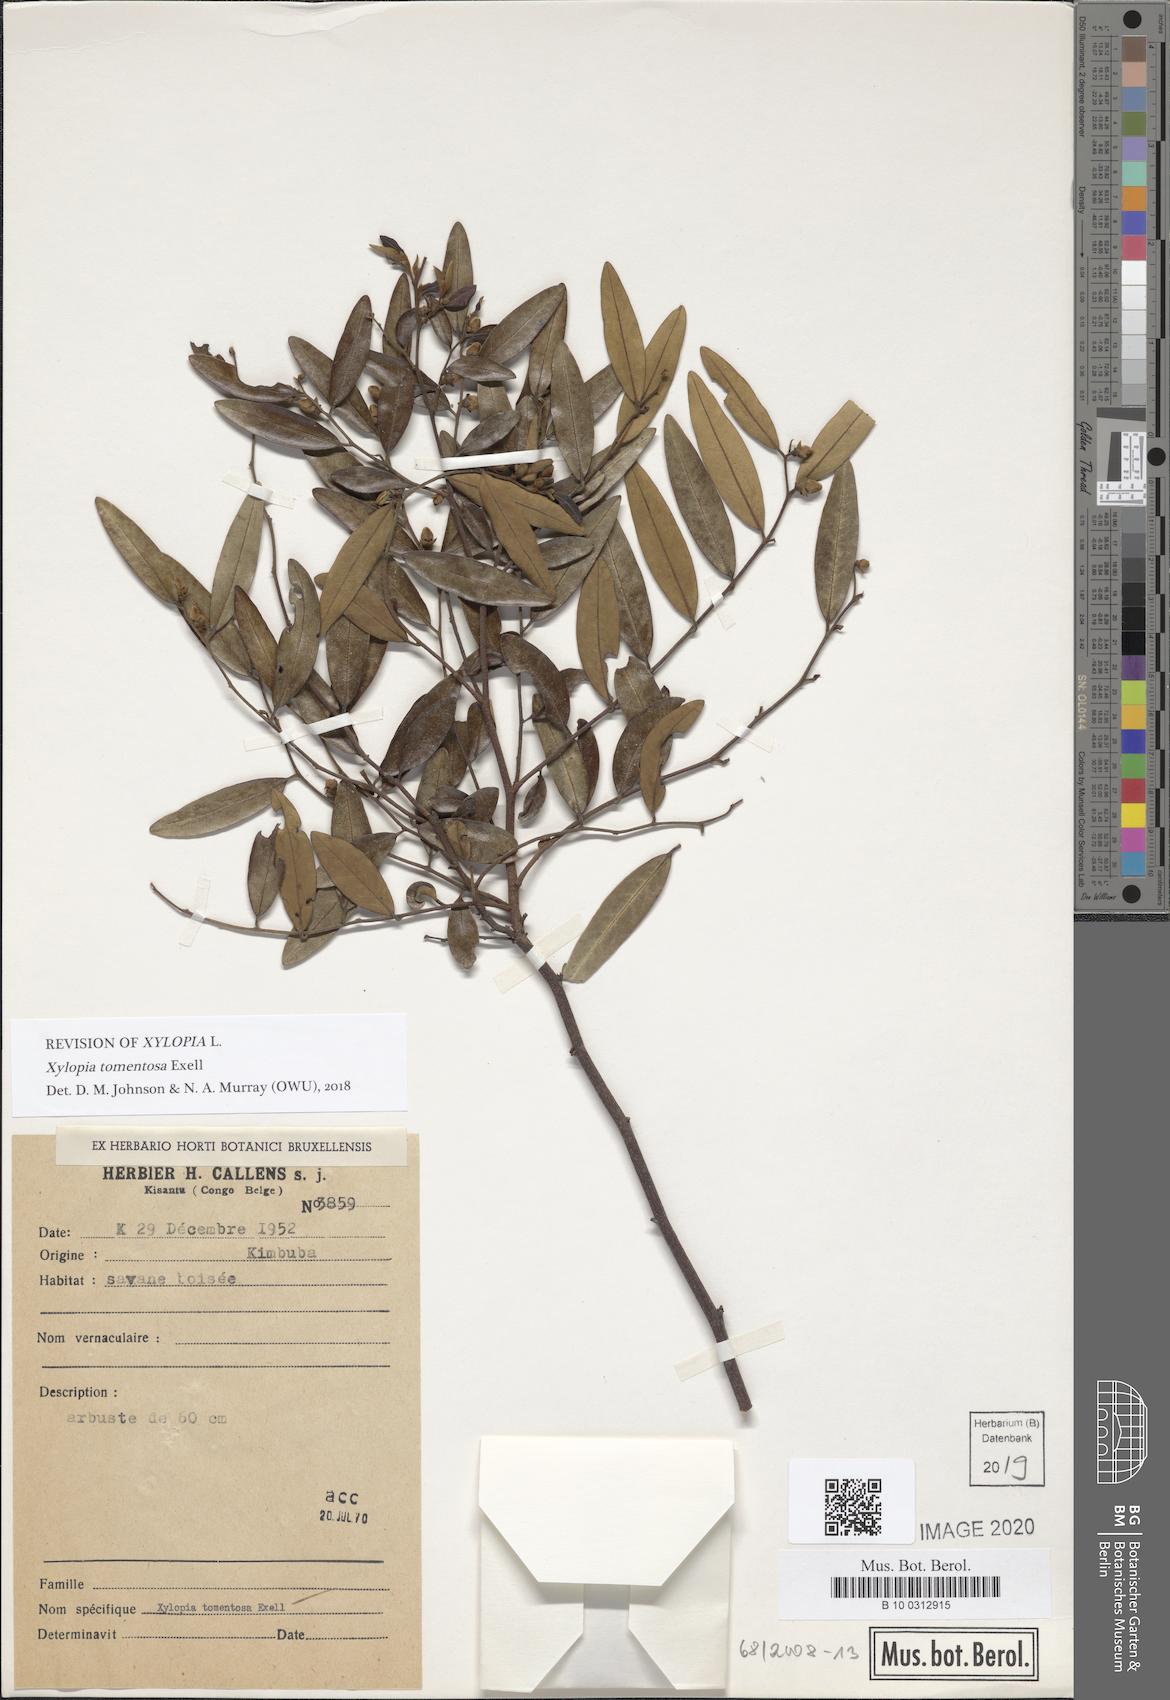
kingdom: Plantae
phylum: Tracheophyta
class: Magnoliopsida
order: Magnoliales
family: Annonaceae
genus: Xylopia
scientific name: Xylopia tomentosa
